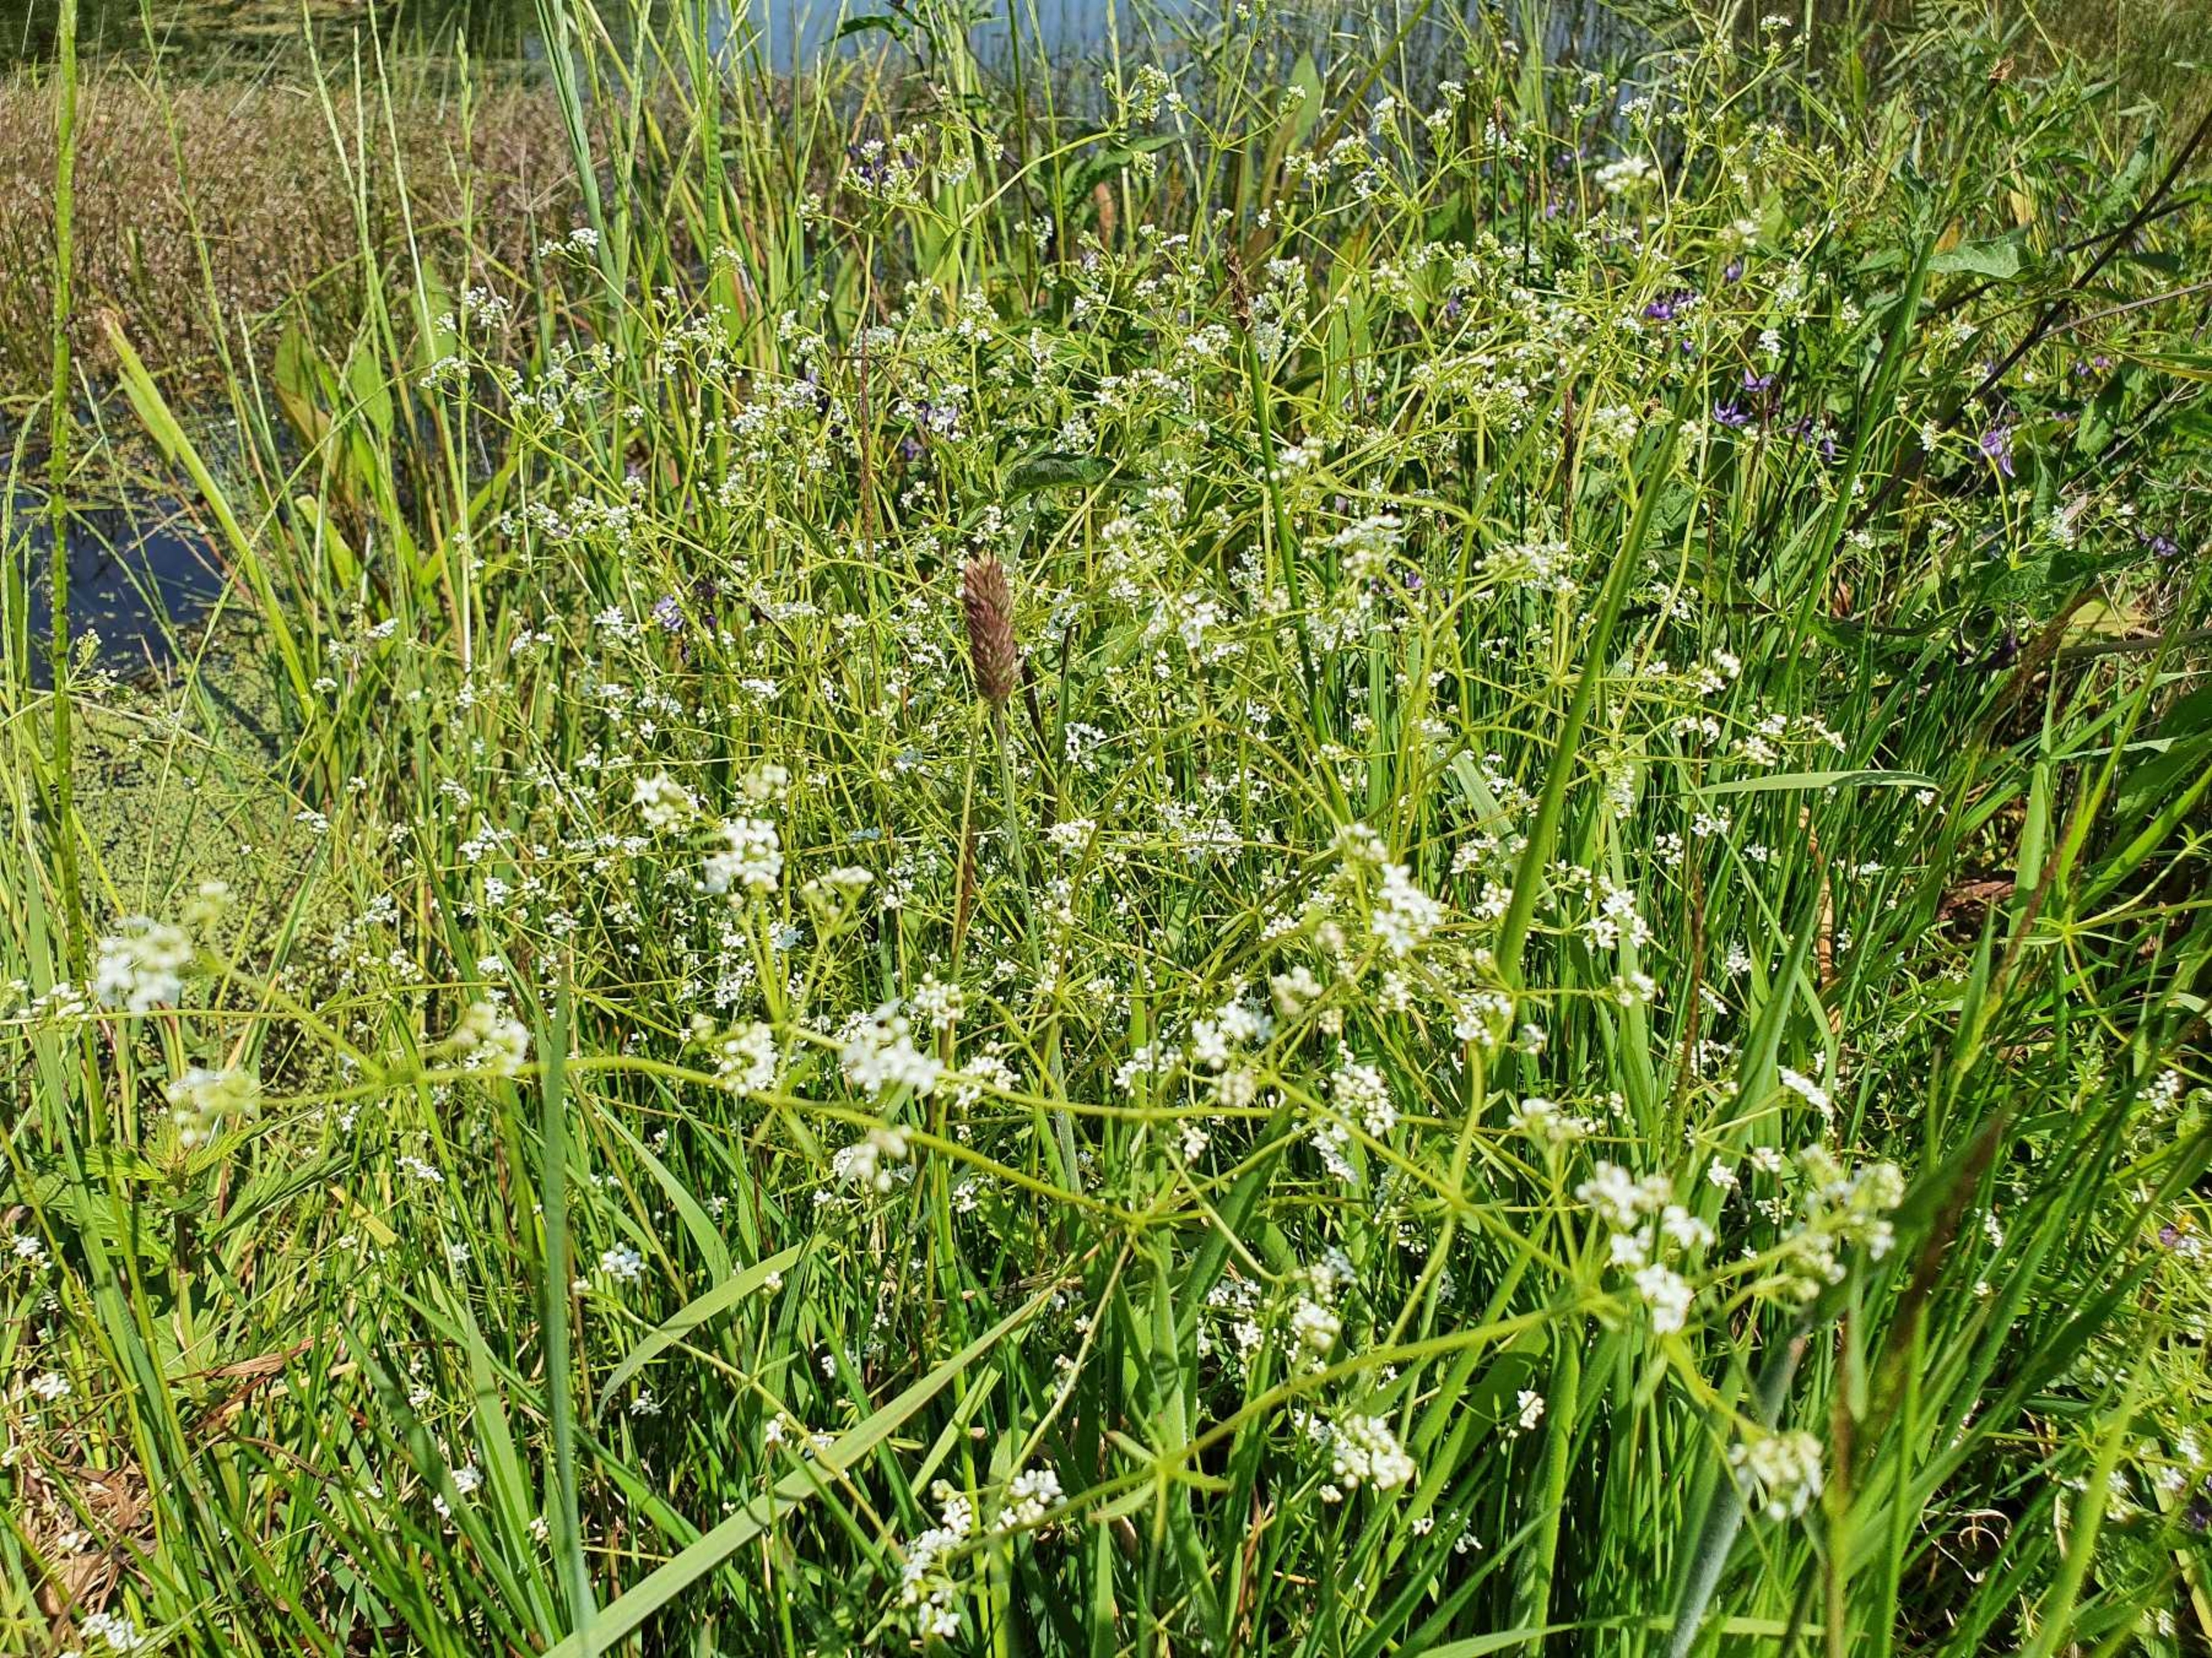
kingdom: Plantae
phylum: Tracheophyta
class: Magnoliopsida
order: Gentianales
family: Rubiaceae
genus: Galium
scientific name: Galium palustre
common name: Kær-snerre
